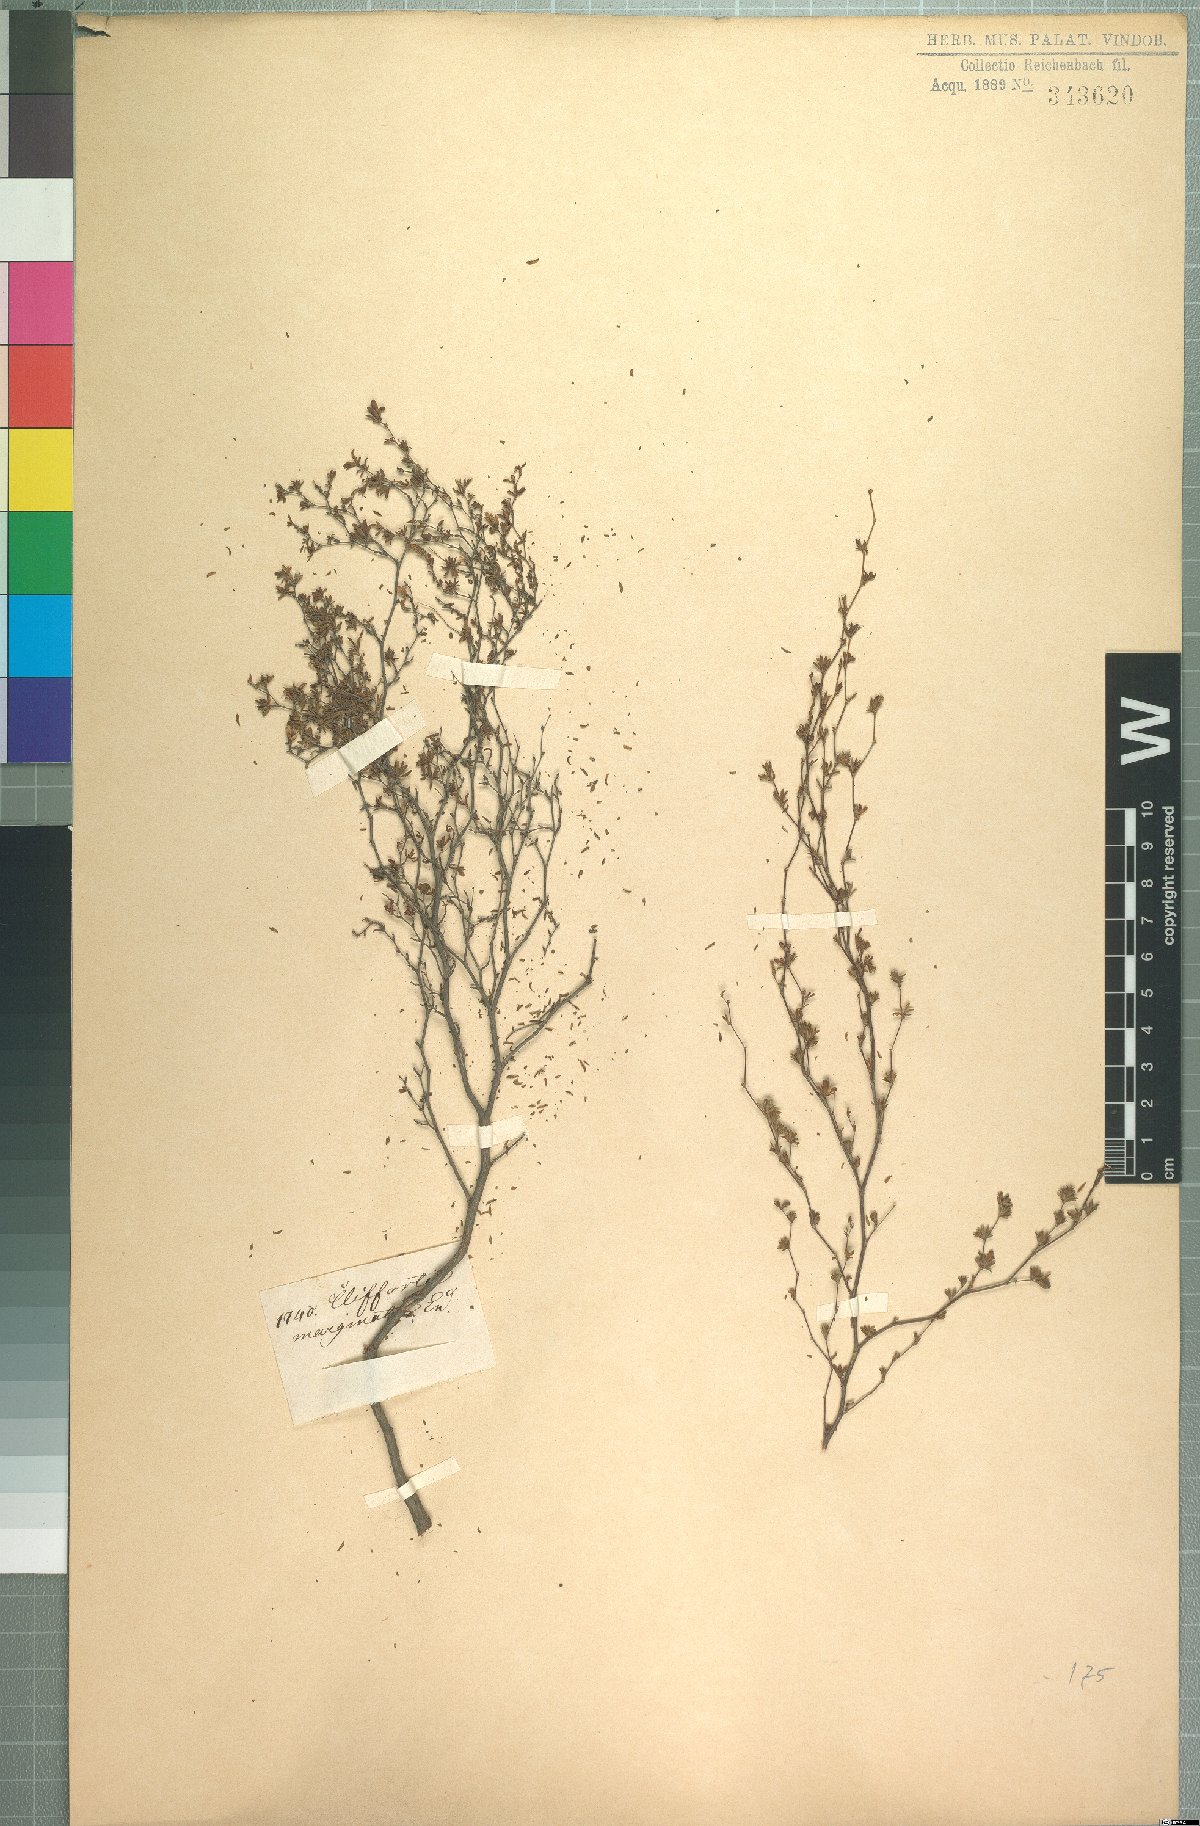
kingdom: Plantae
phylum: Tracheophyta
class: Magnoliopsida
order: Rosales
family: Rosaceae
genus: Cliffortia
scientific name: Cliffortia marginata
